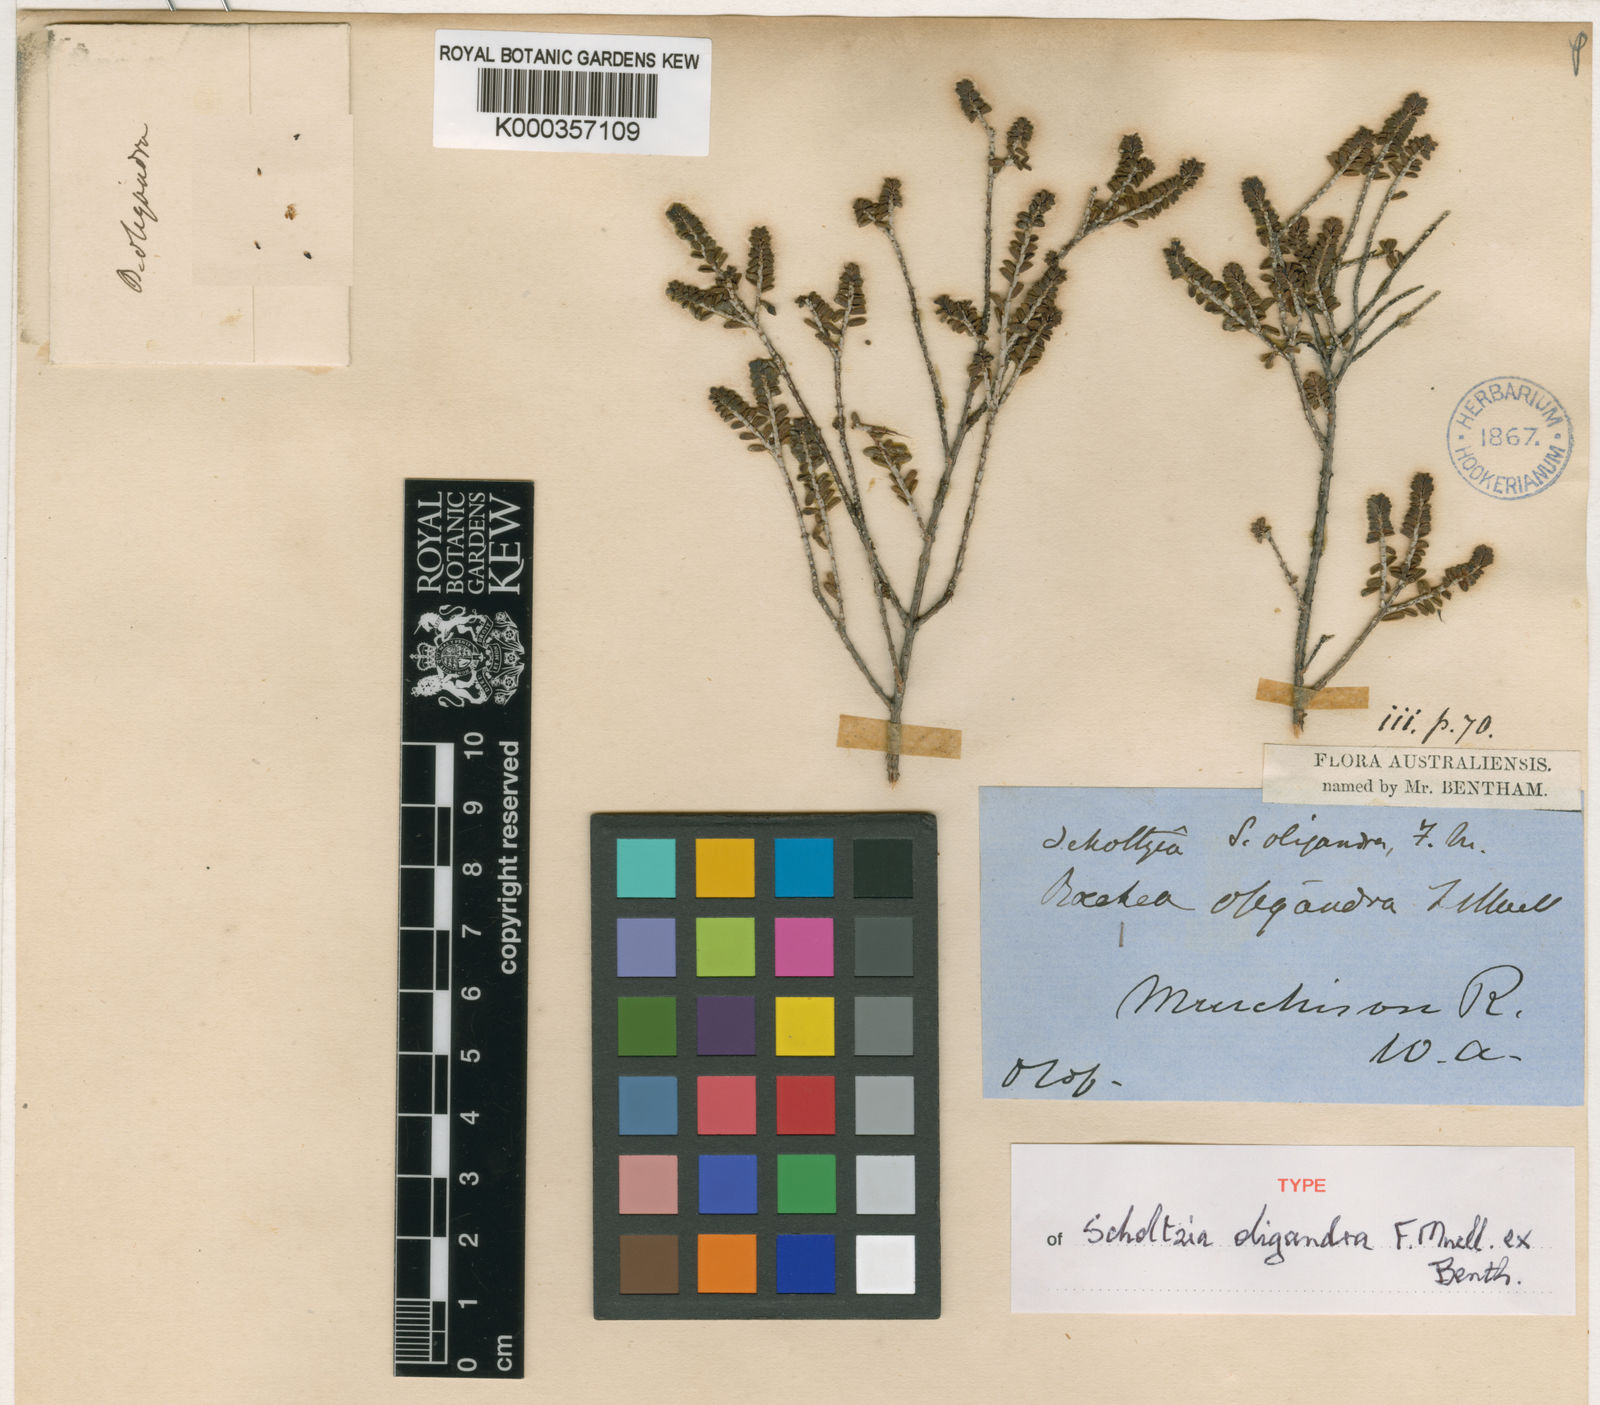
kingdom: Plantae
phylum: Tracheophyta
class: Magnoliopsida
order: Myrtales
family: Myrtaceae
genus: Scholtzia
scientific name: Scholtzia oligandra
